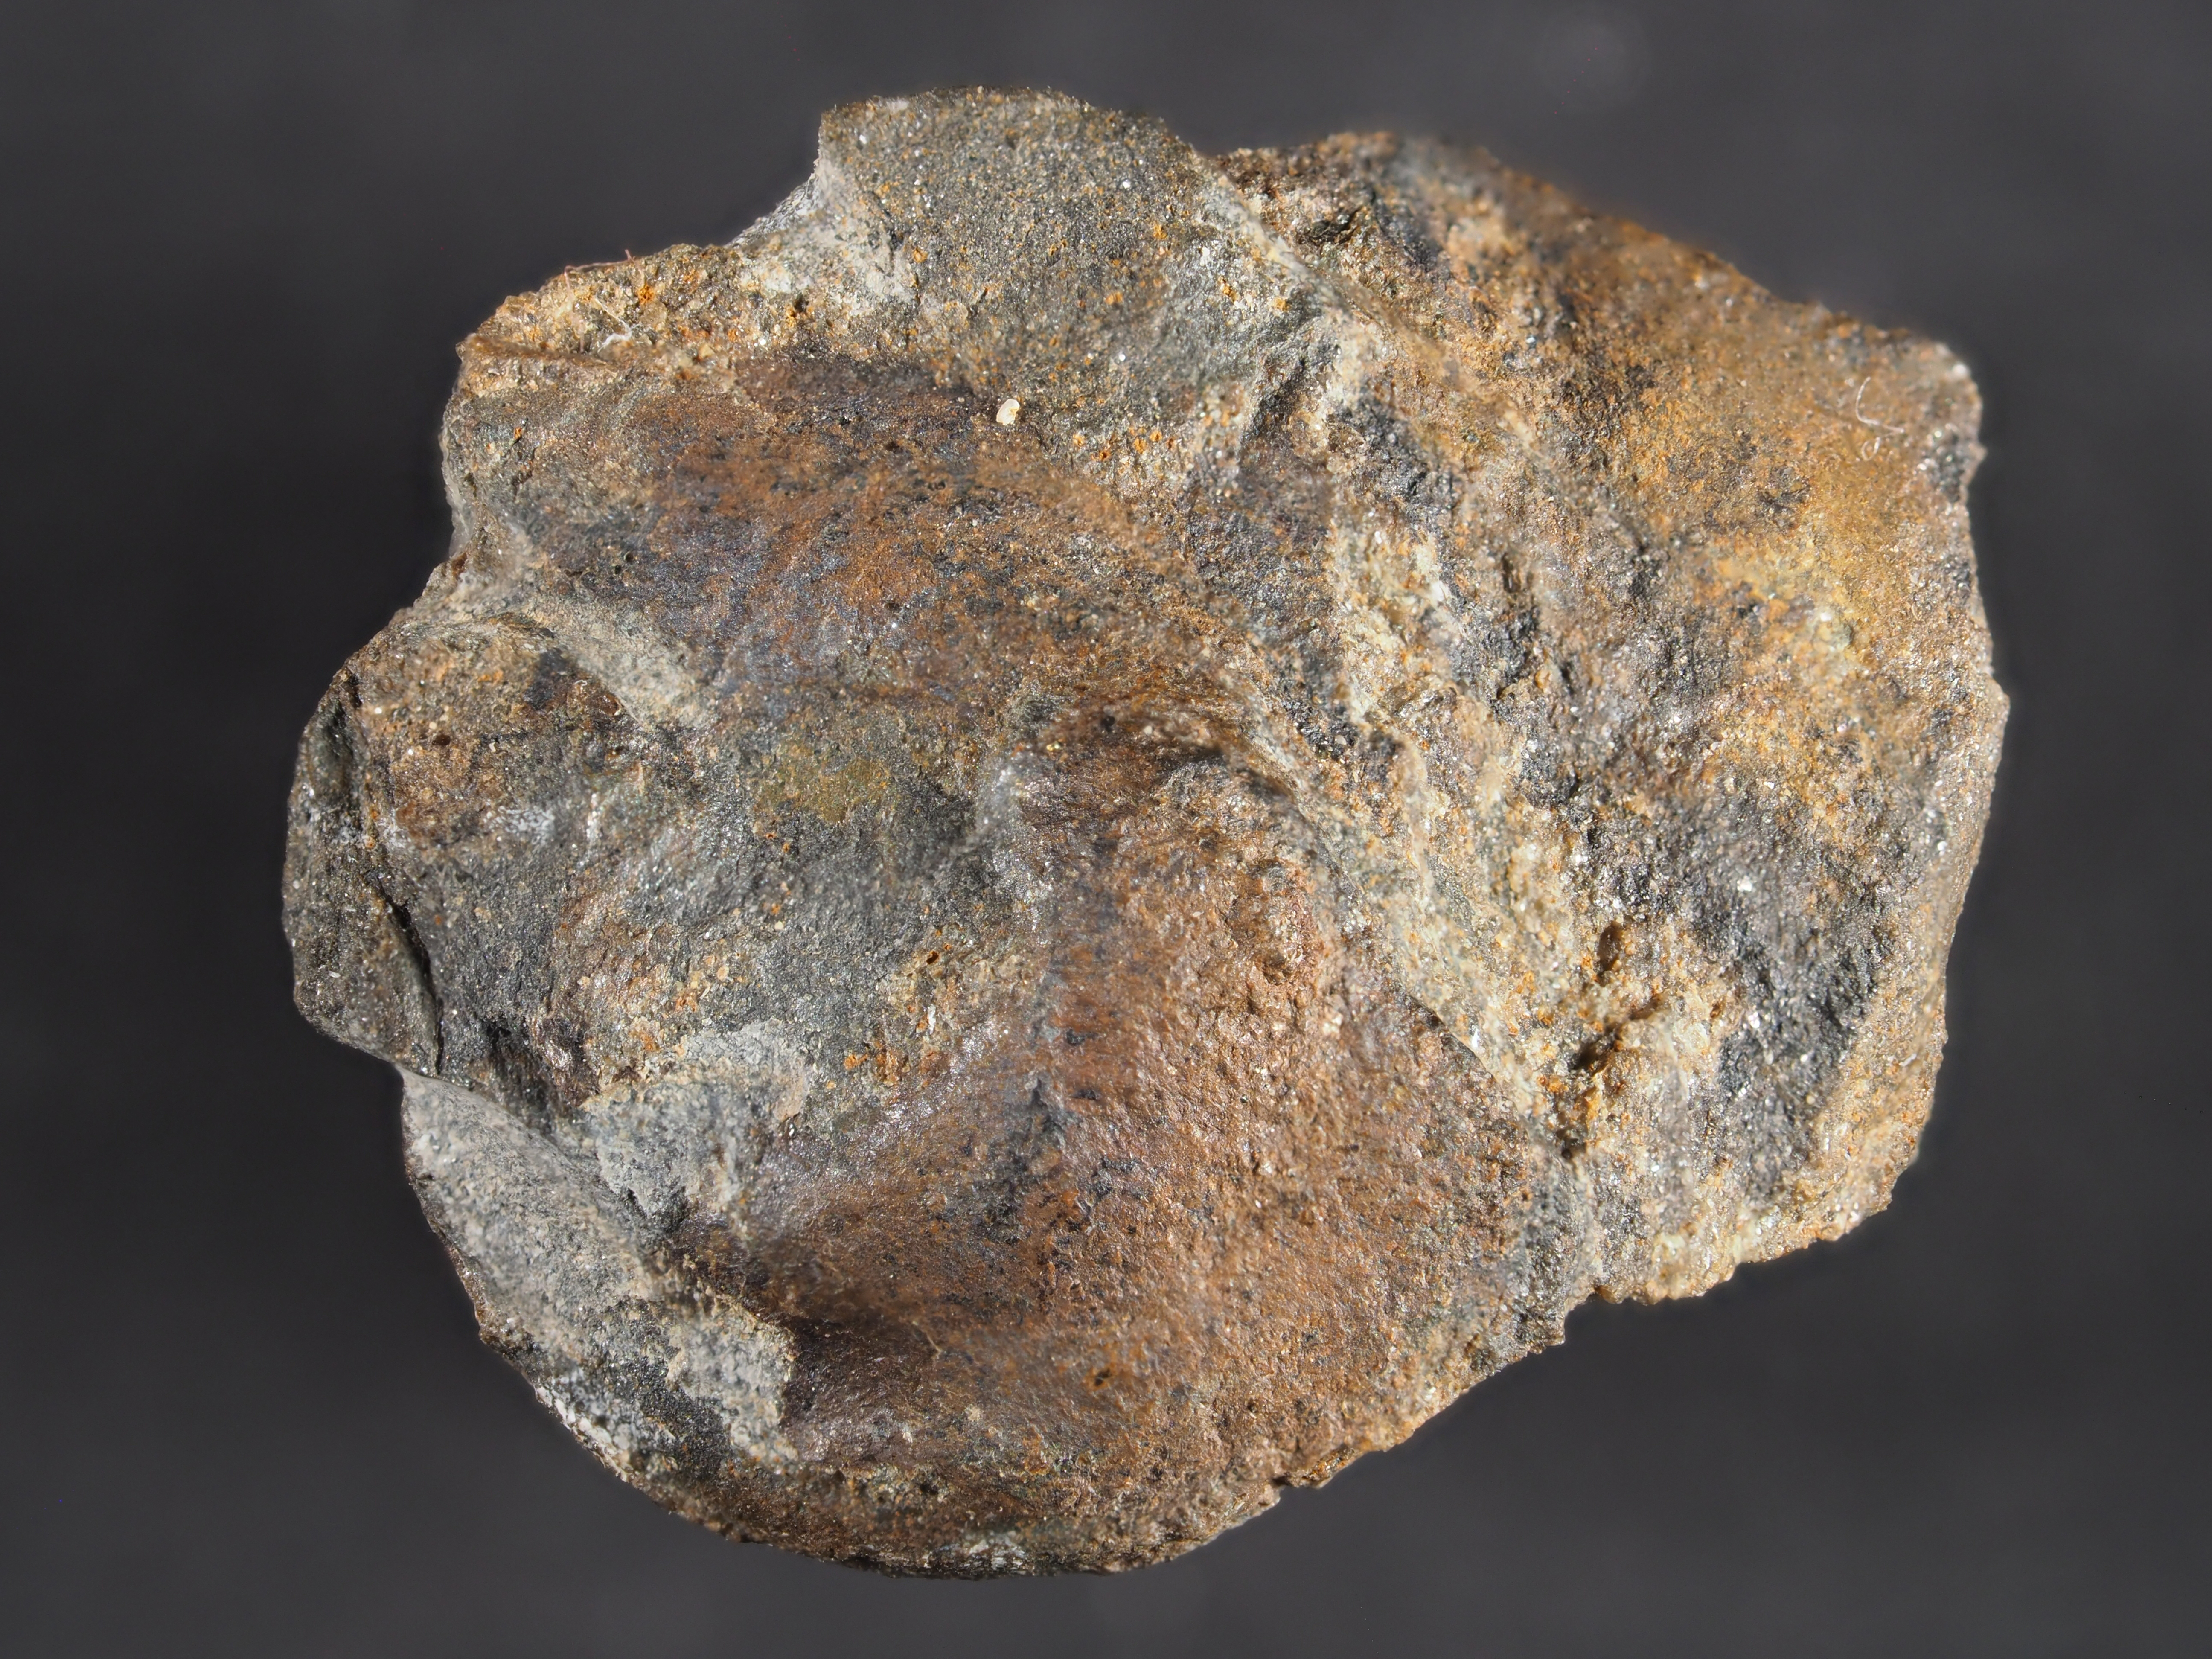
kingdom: Animalia
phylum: Mollusca
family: Bucanellidae
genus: Bucanella
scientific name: Bucanella
